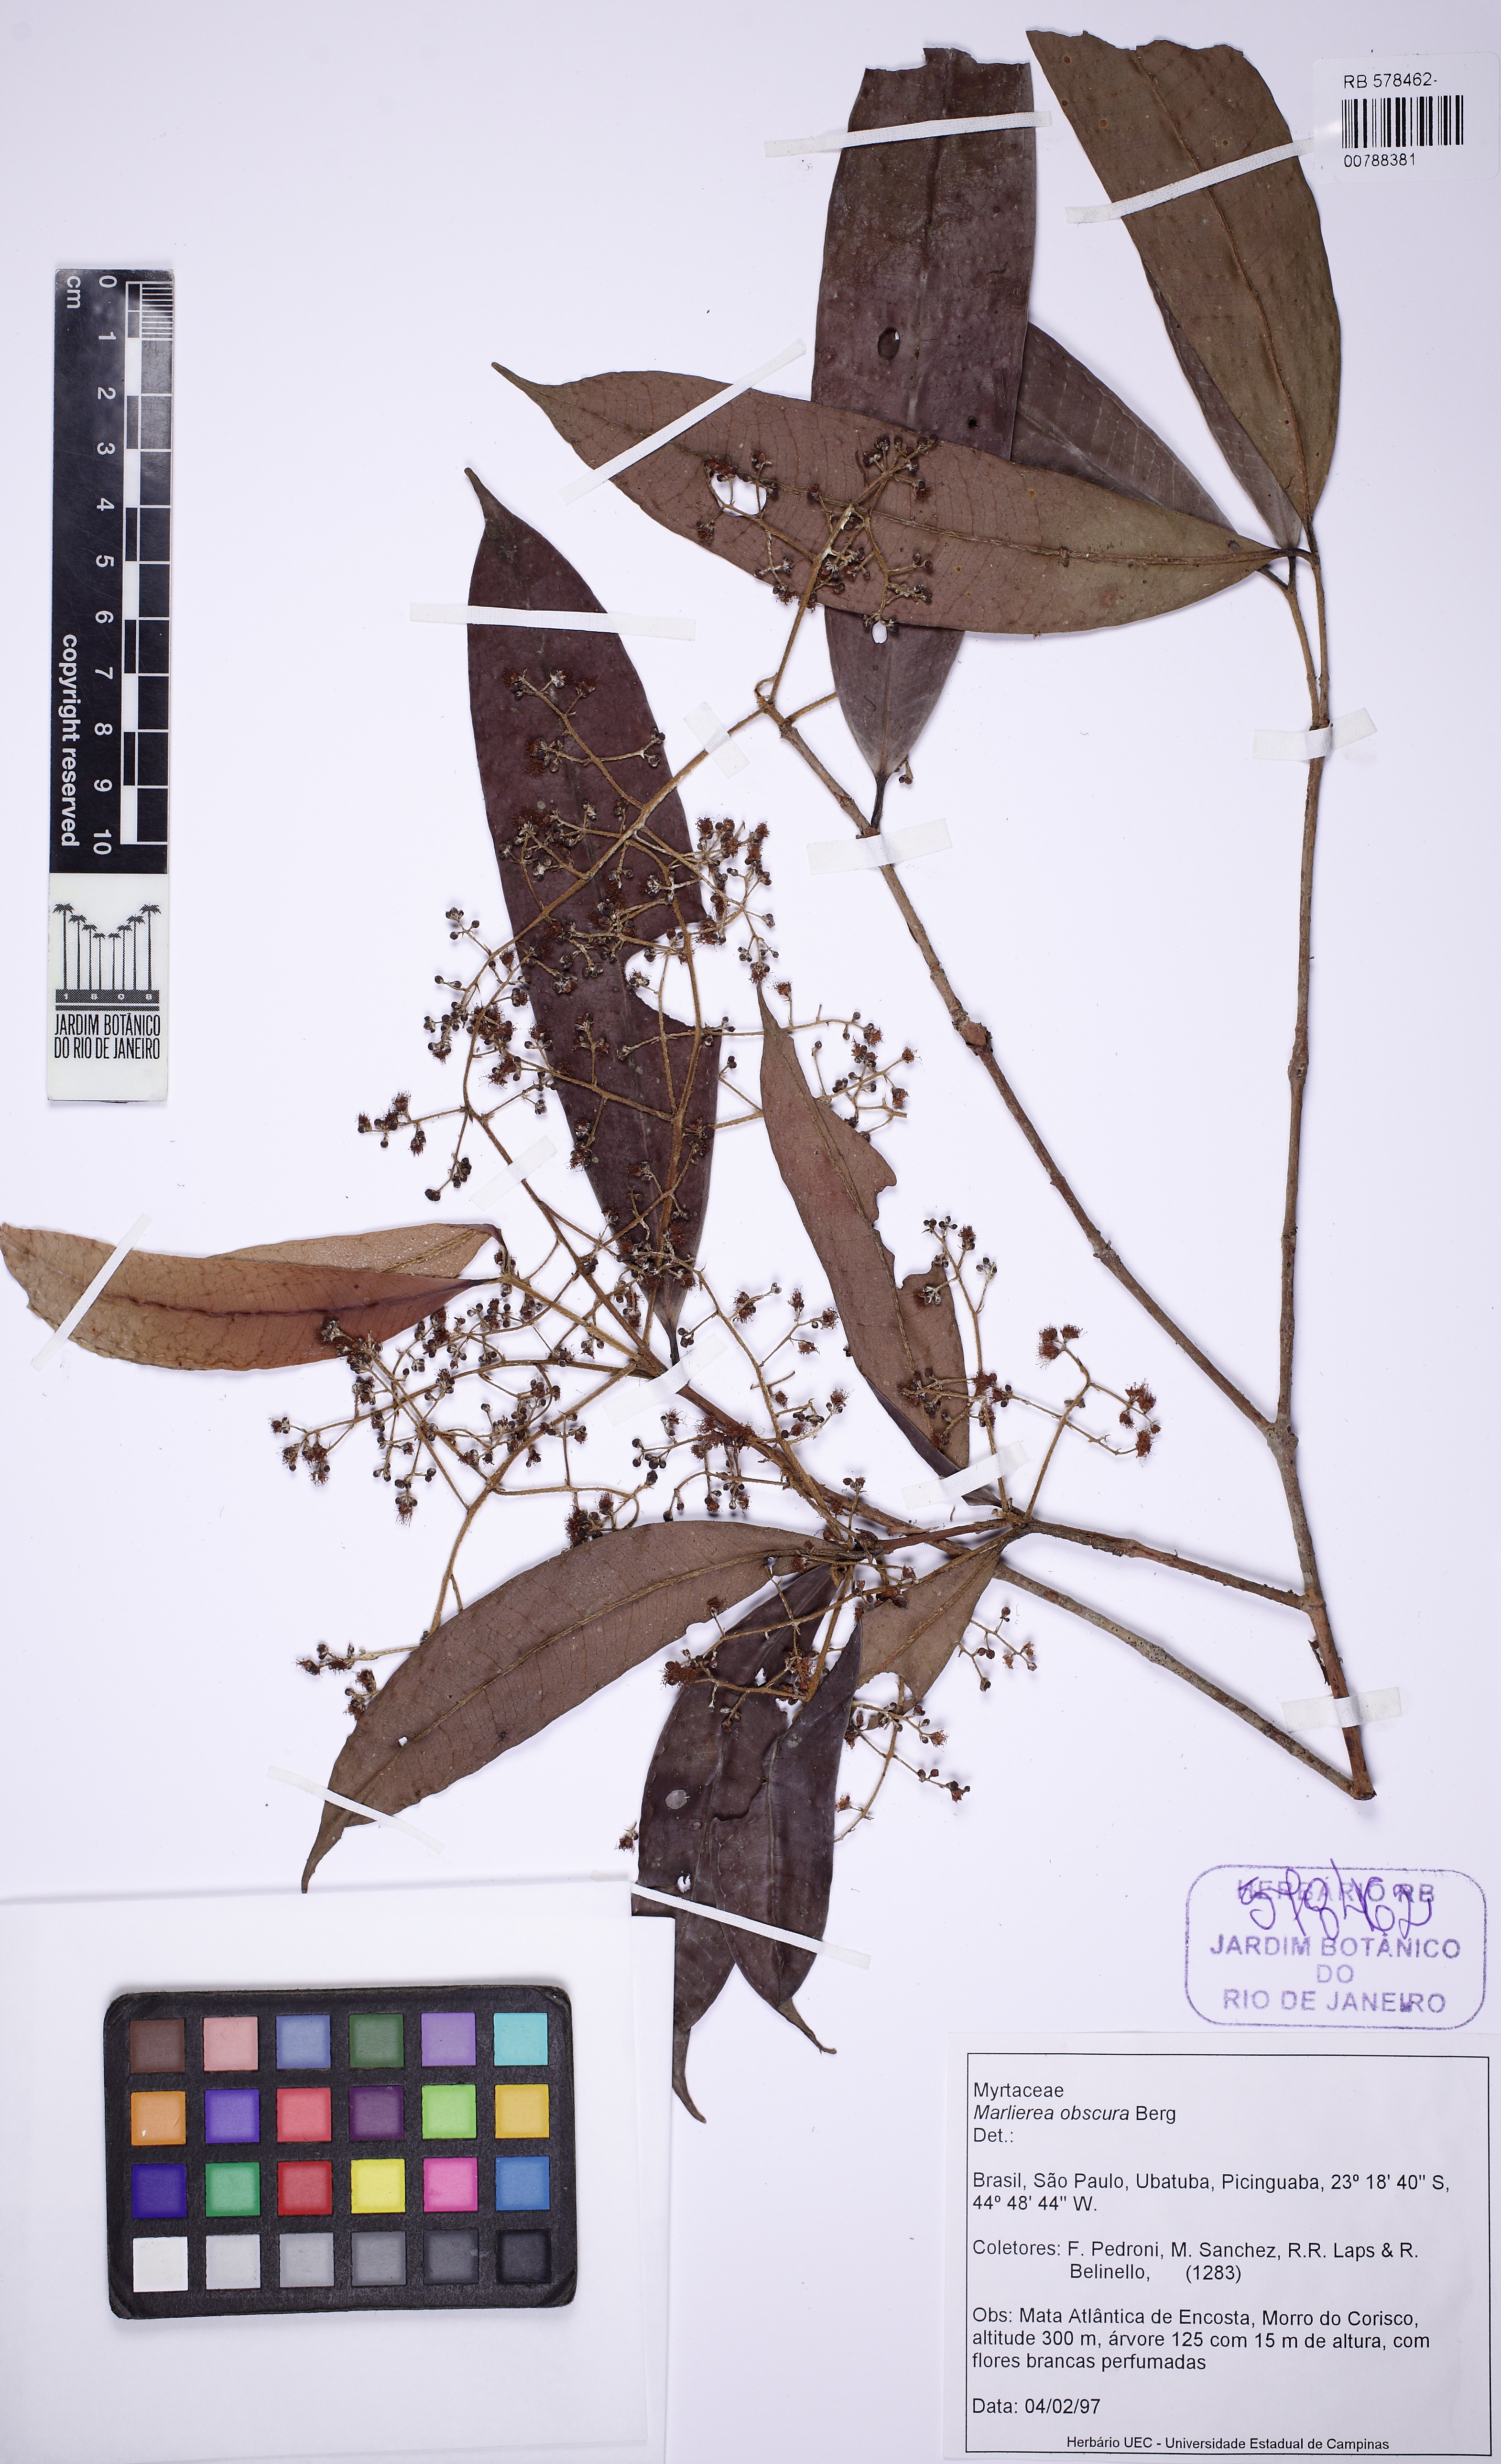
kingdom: Plantae
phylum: Tracheophyta
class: Magnoliopsida
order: Myrtales
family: Myrtaceae
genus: Myrcia
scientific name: Myrcia neoobscura
